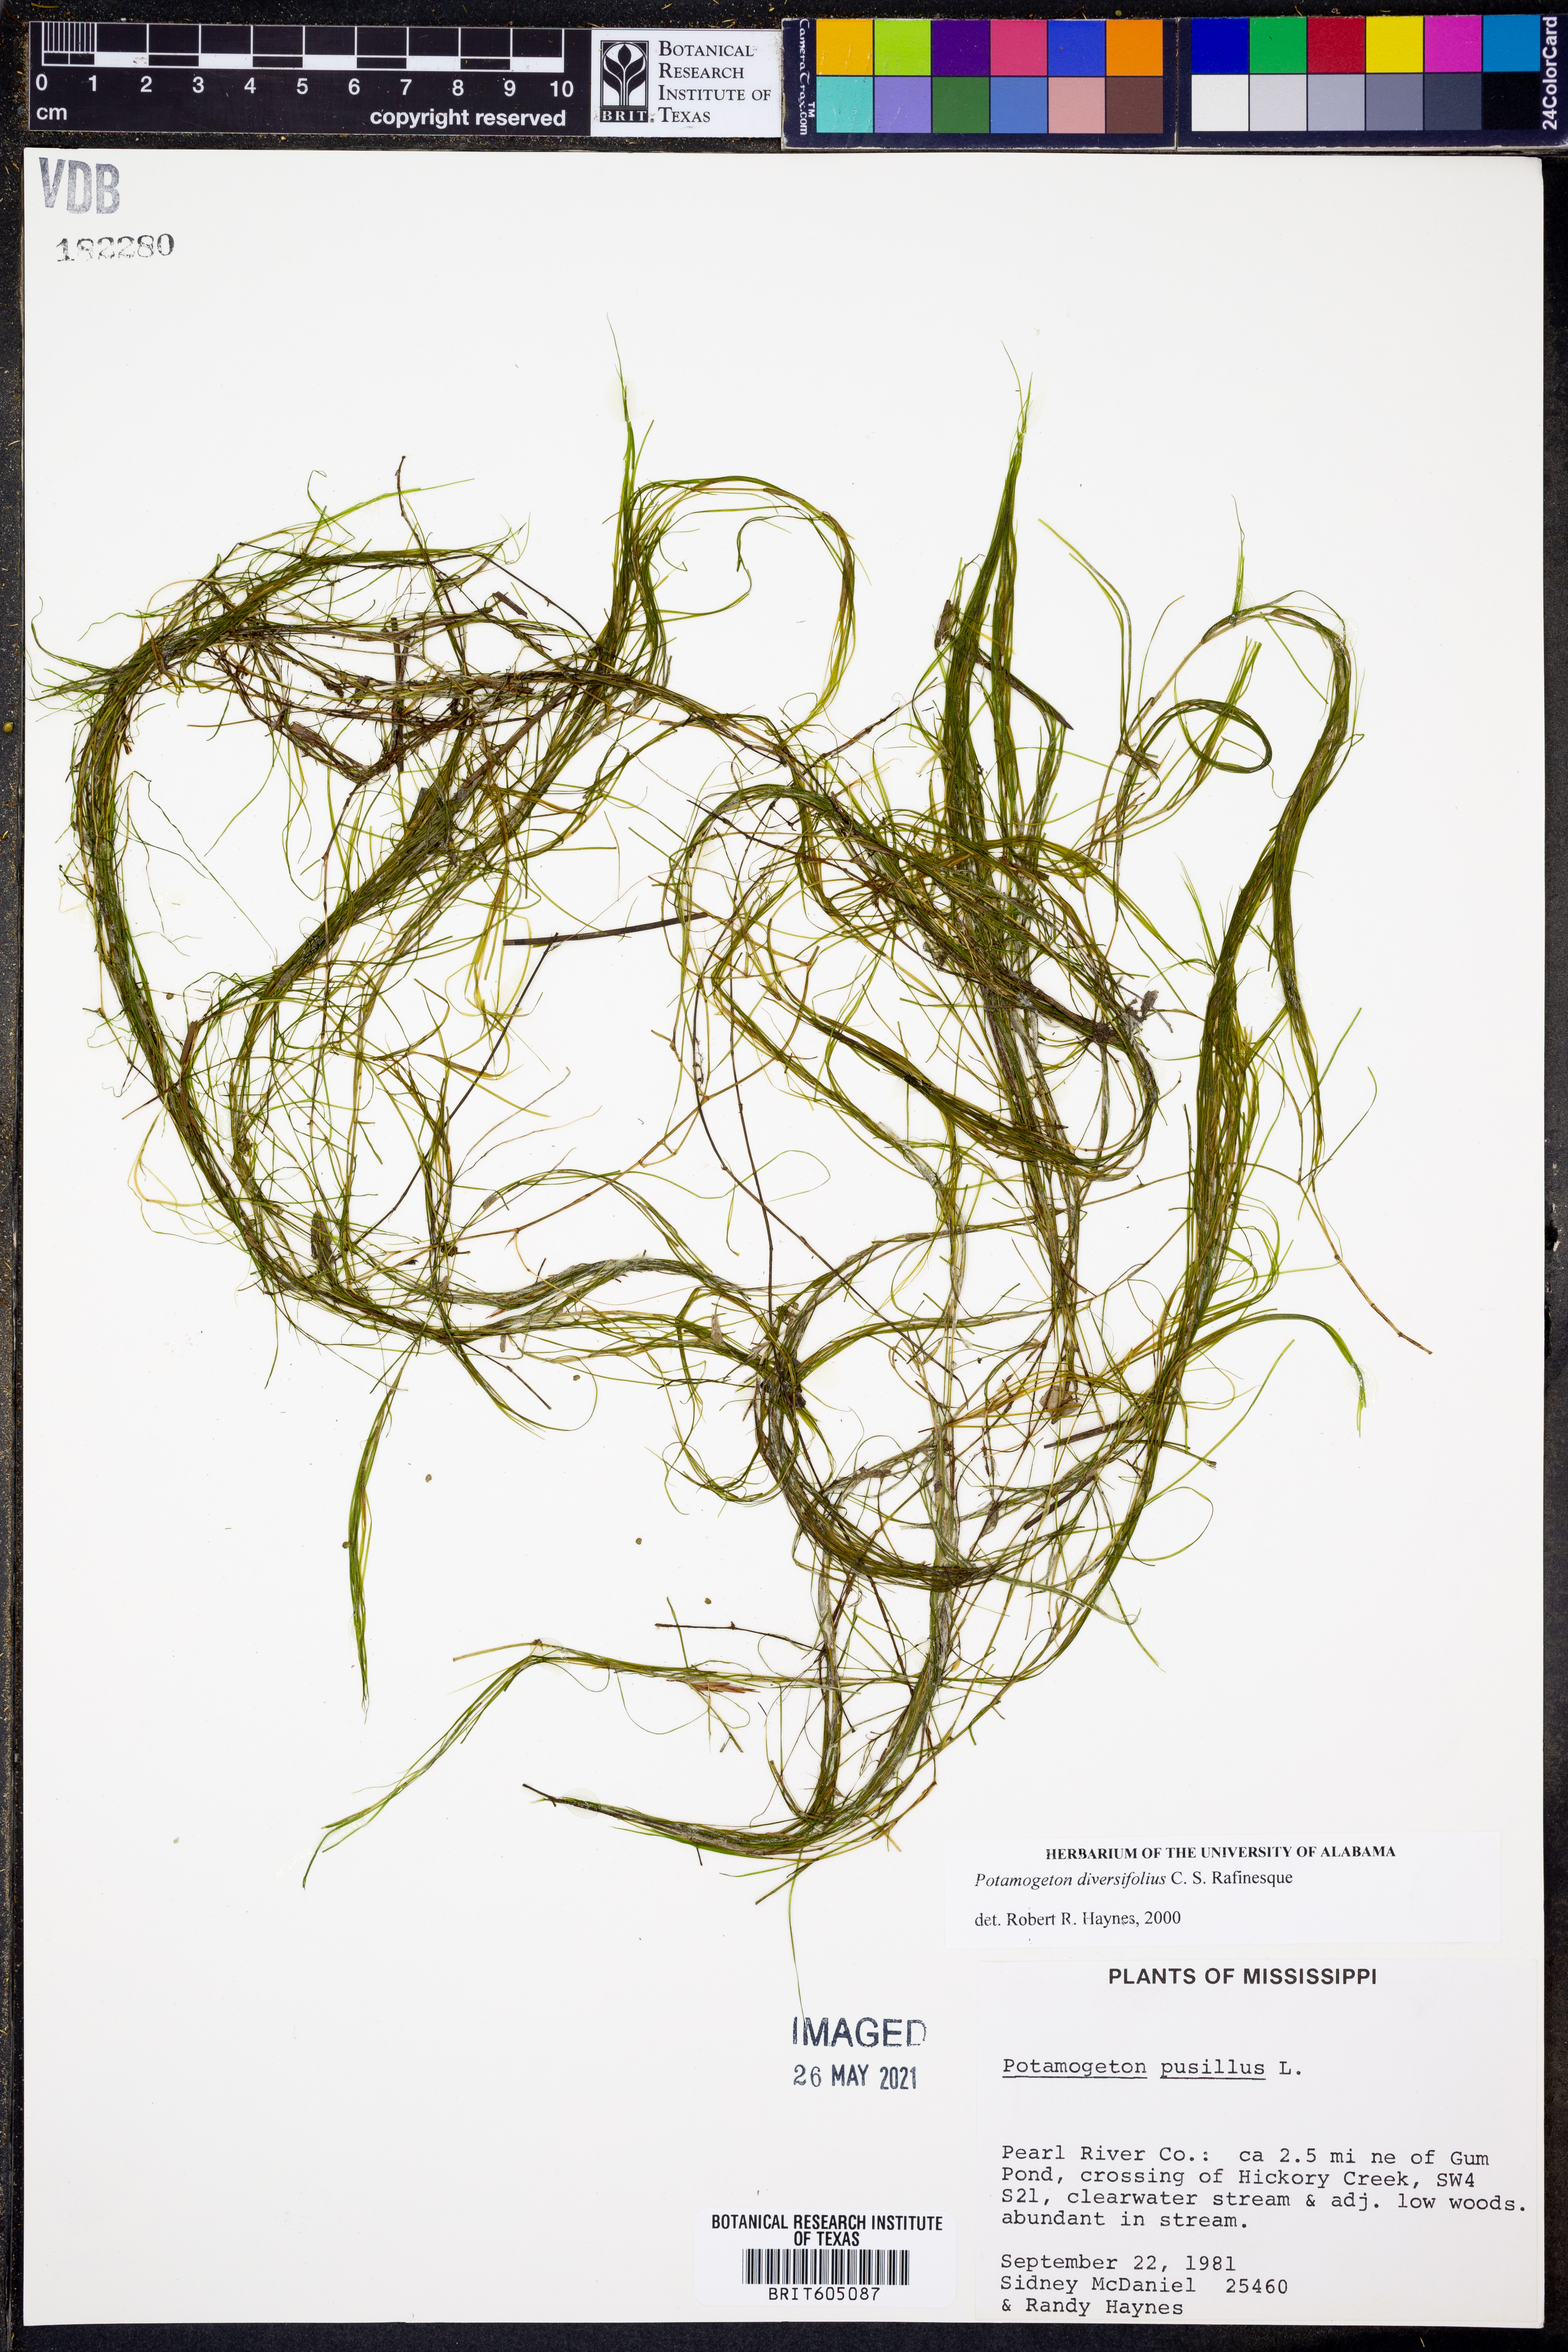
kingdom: Plantae
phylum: Tracheophyta
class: Liliopsida
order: Alismatales
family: Potamogetonaceae
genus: Potamogeton
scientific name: Potamogeton pusillus
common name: Lesser pondweed
